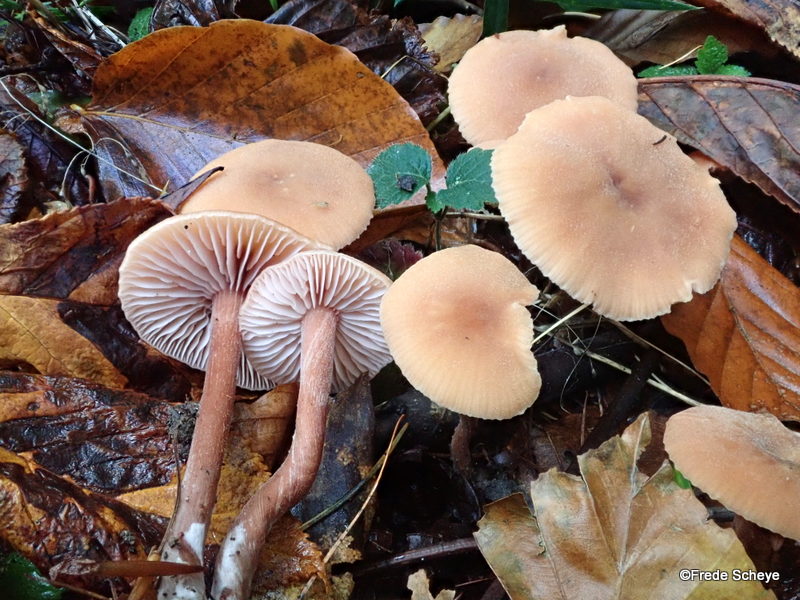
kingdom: Fungi
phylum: Basidiomycota
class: Agaricomycetes
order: Agaricales
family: Hydnangiaceae
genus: Laccaria
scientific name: Laccaria laccata
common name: rød ametysthat
